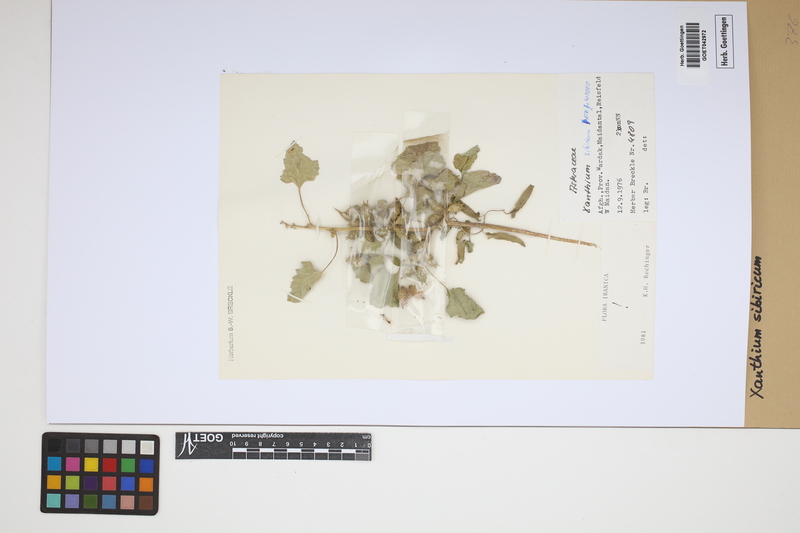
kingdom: Plantae
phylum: Tracheophyta
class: Magnoliopsida
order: Asterales
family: Asteraceae
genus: Xanthium
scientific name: Xanthium strumarium
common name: Rough cocklebur
